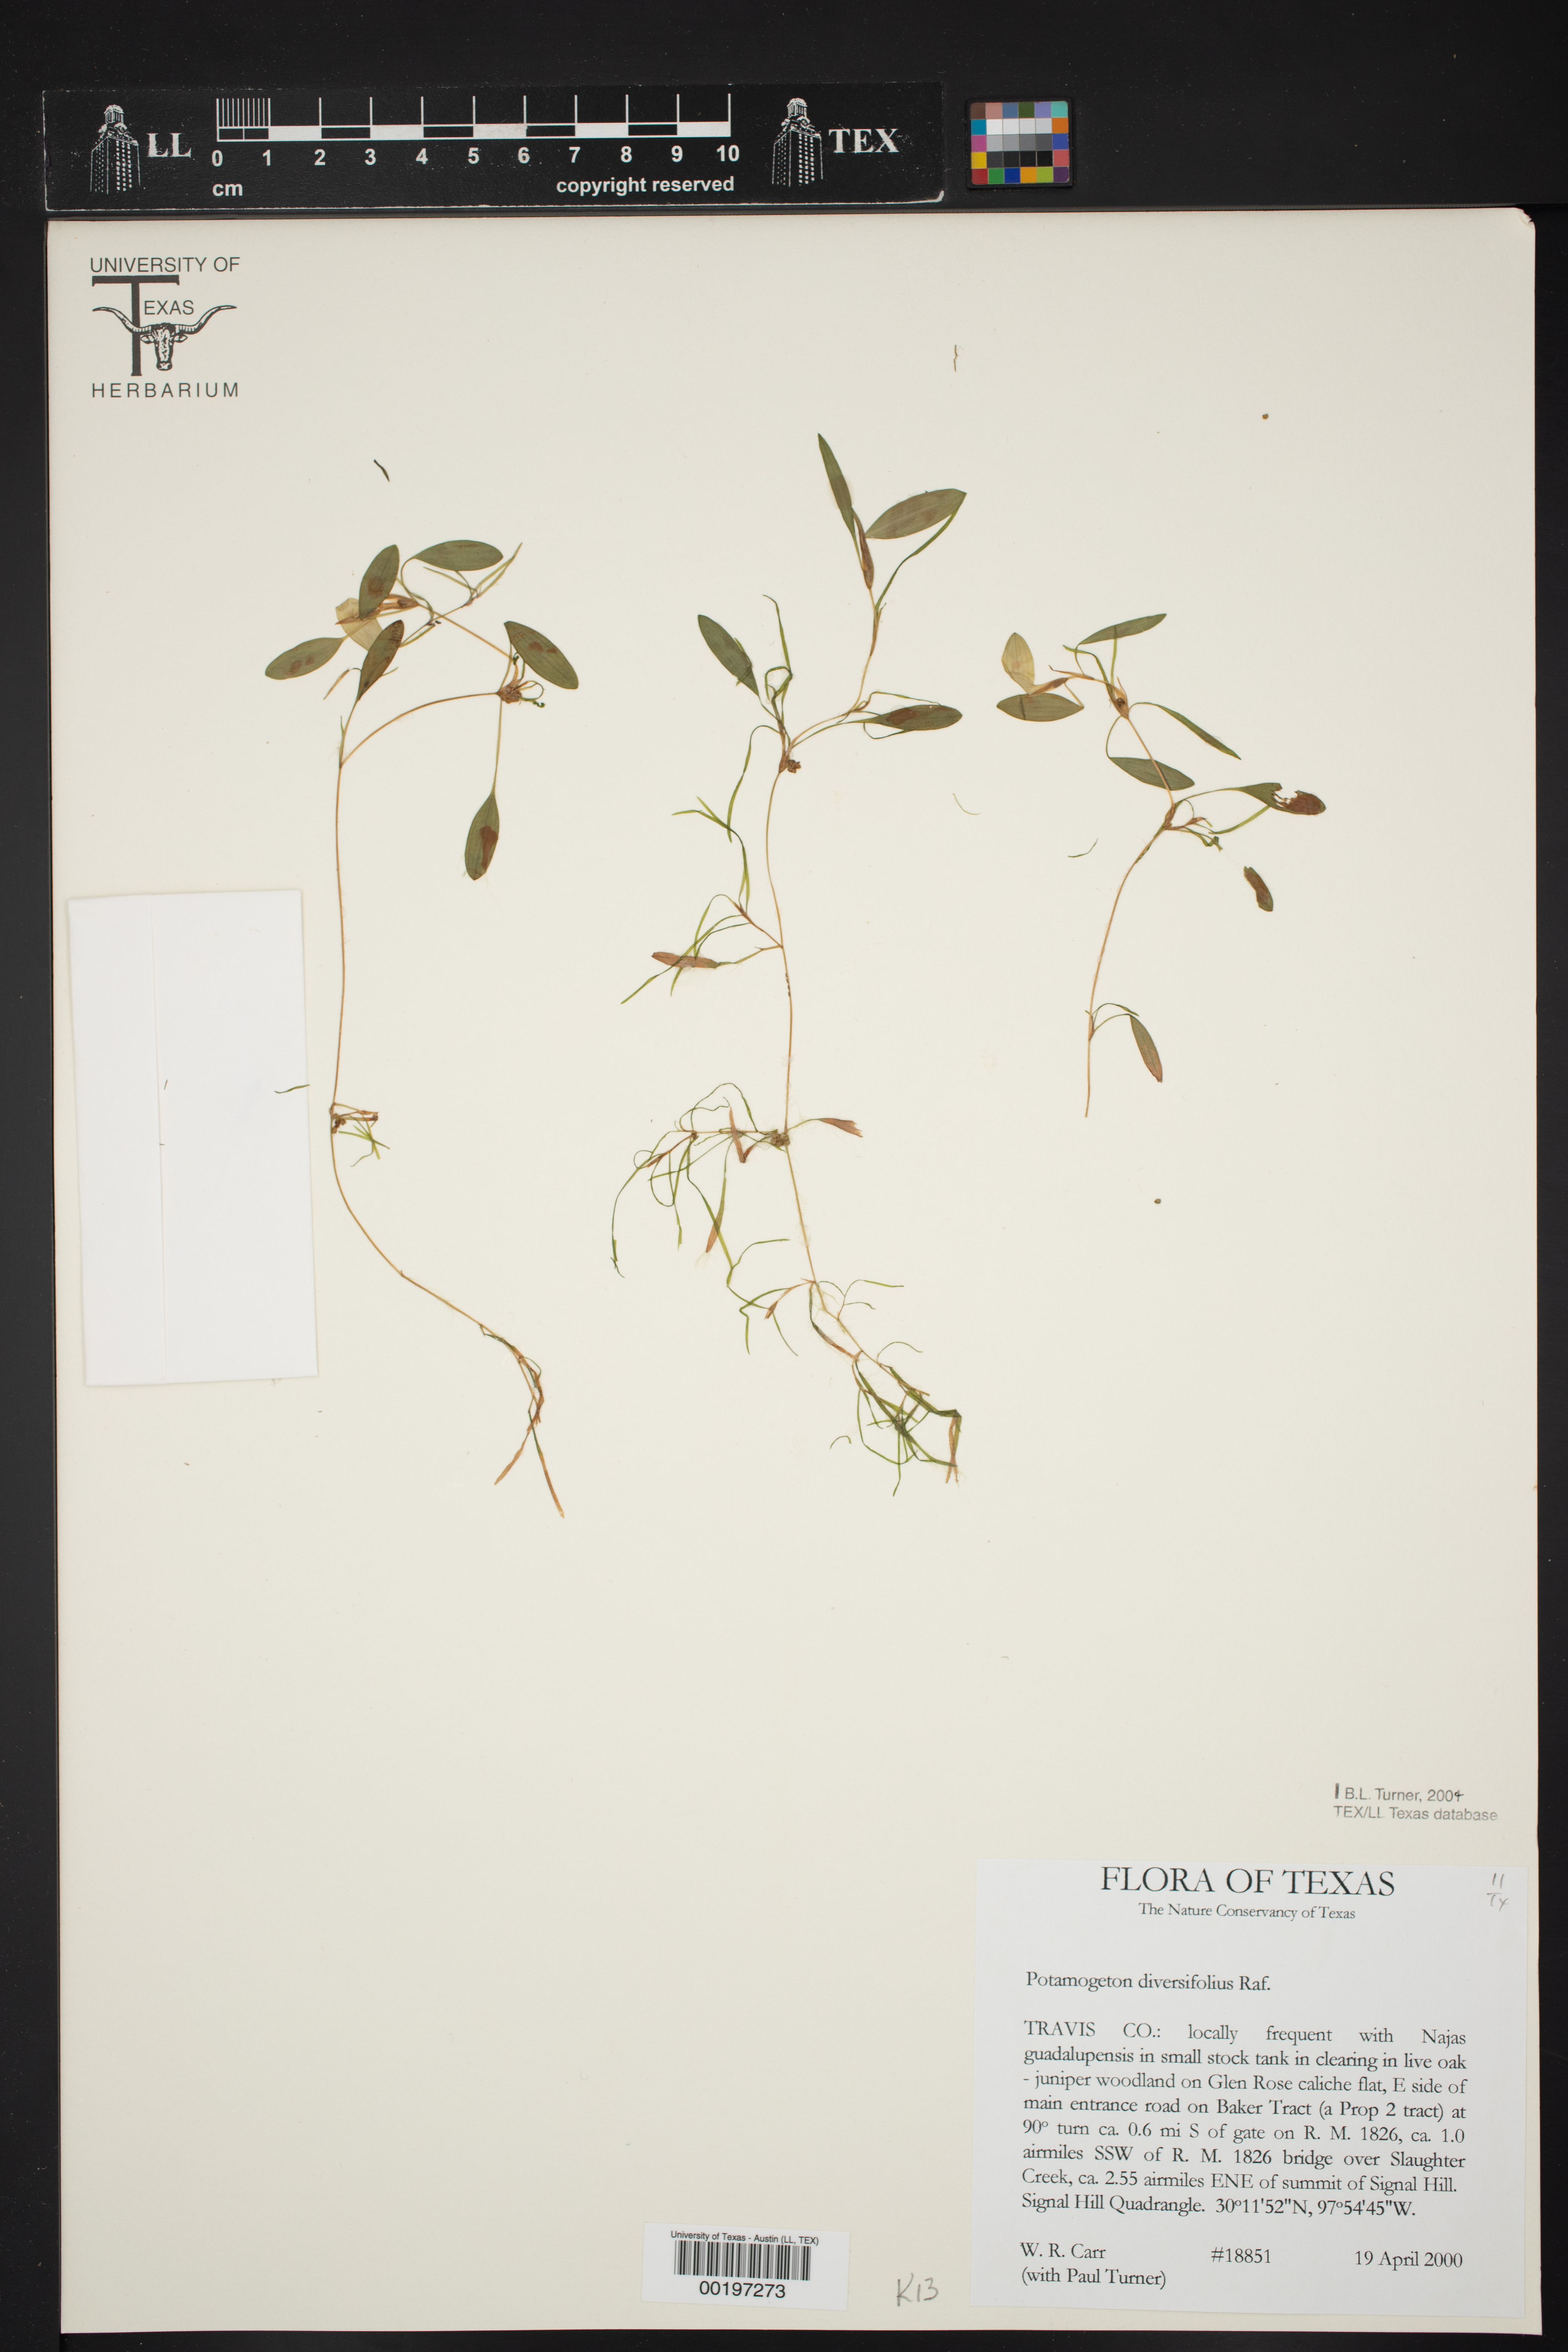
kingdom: Plantae
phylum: Tracheophyta
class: Liliopsida
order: Alismatales
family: Potamogetonaceae
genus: Potamogeton
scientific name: Potamogeton diversifolius
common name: Water-thread pondweed
